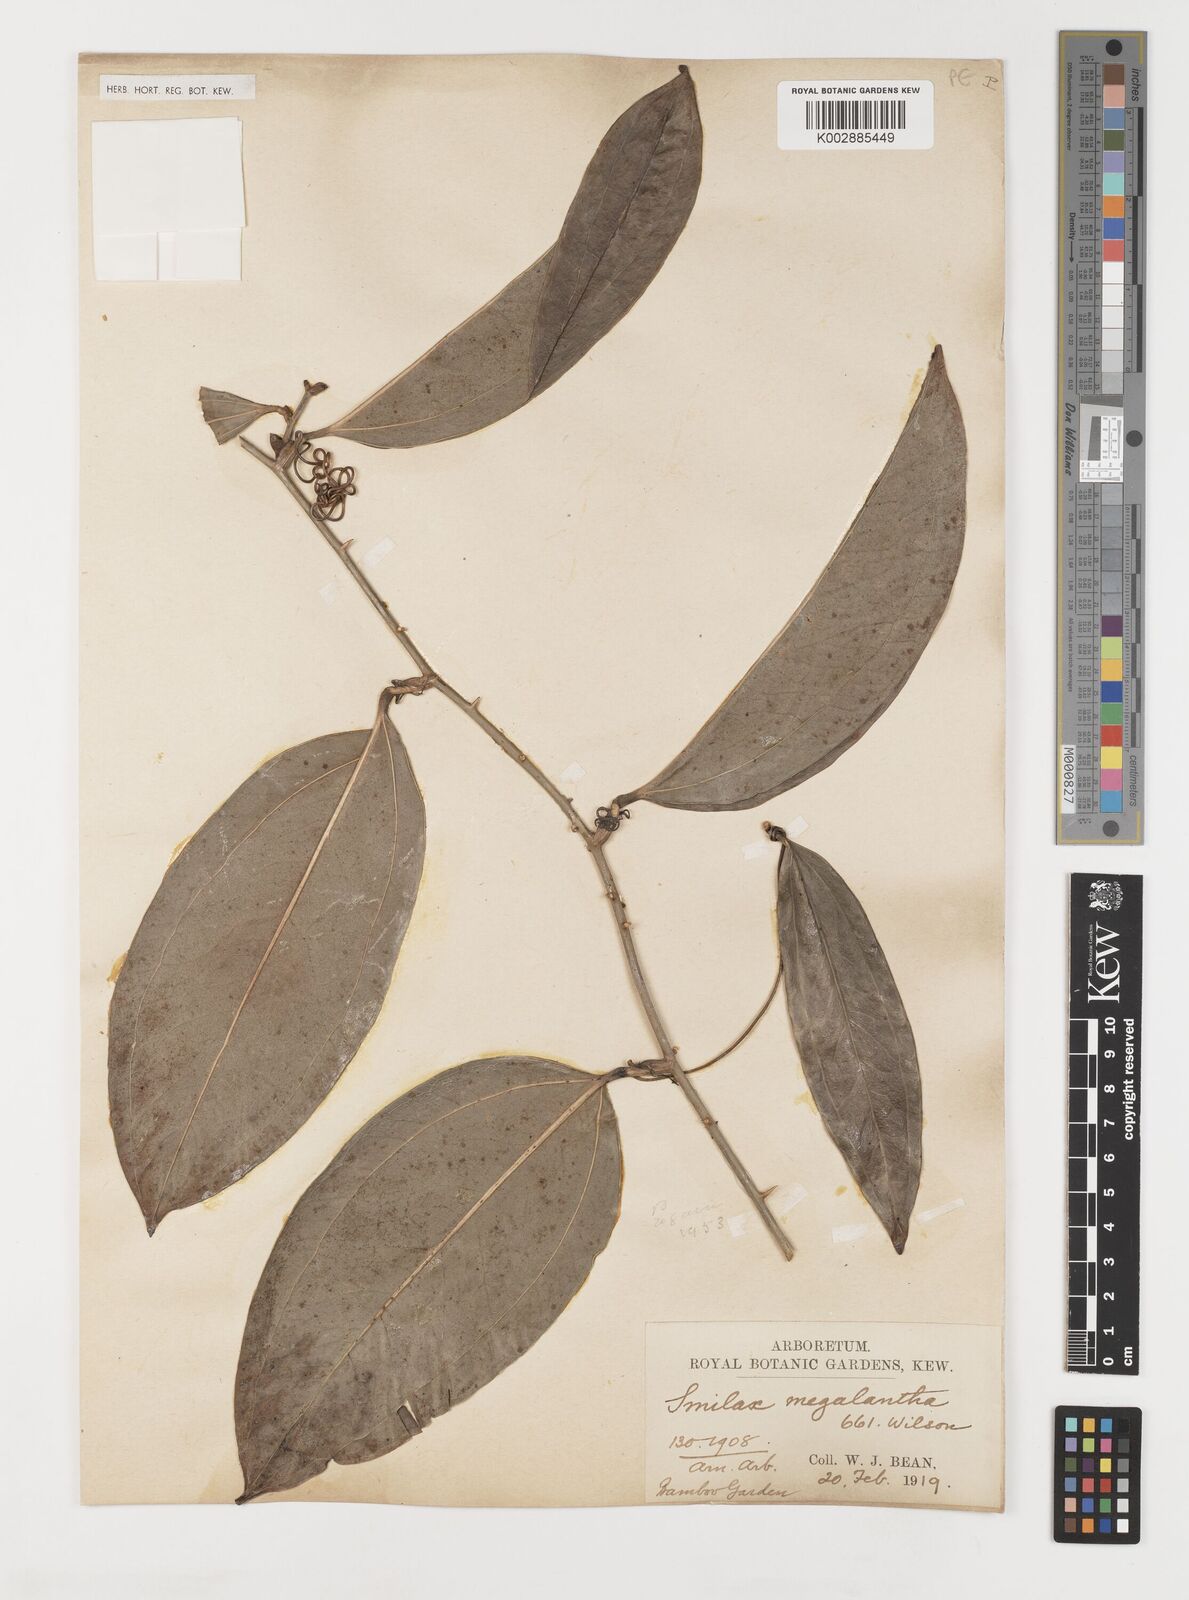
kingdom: Plantae
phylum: Tracheophyta
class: Liliopsida
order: Liliales
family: Smilacaceae
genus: Smilax
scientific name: Smilax megalantha
